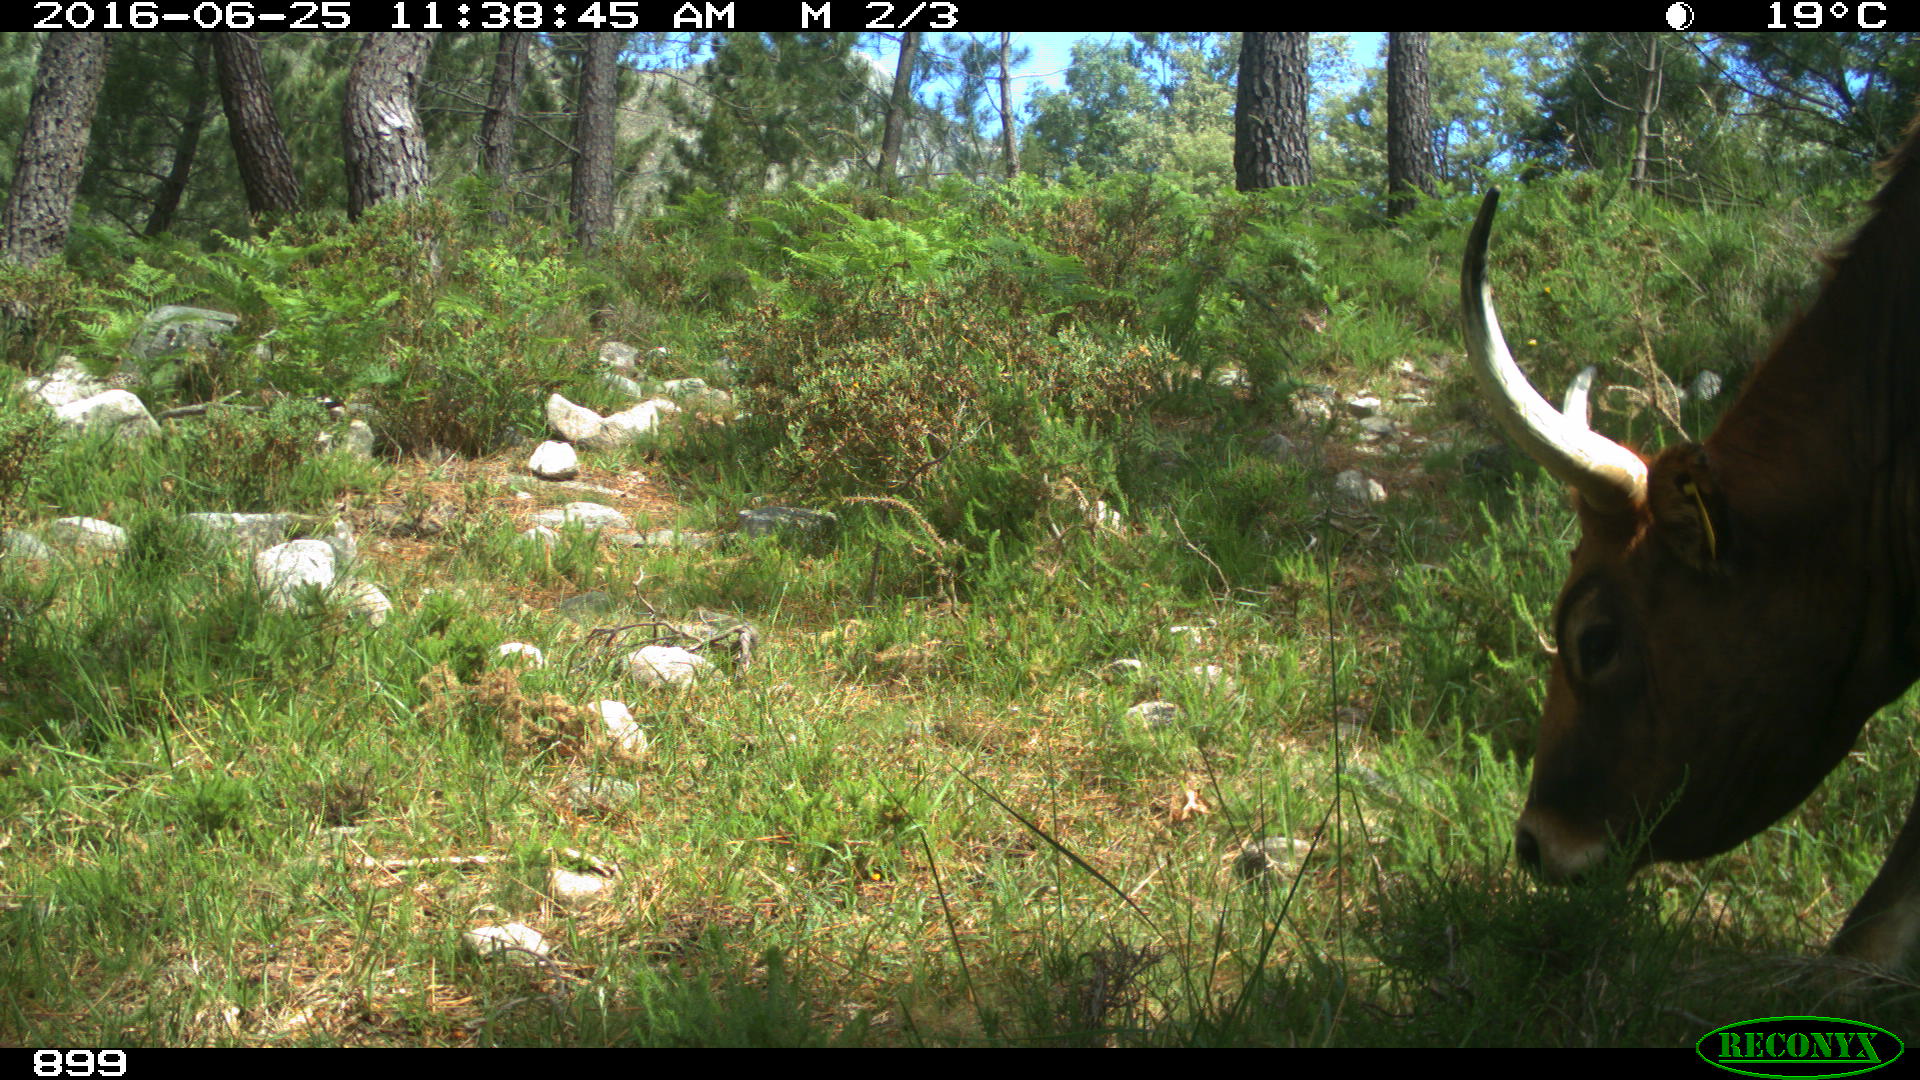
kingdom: Animalia
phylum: Chordata
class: Mammalia
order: Artiodactyla
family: Bovidae
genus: Bos
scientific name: Bos taurus
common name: Domesticated cattle
